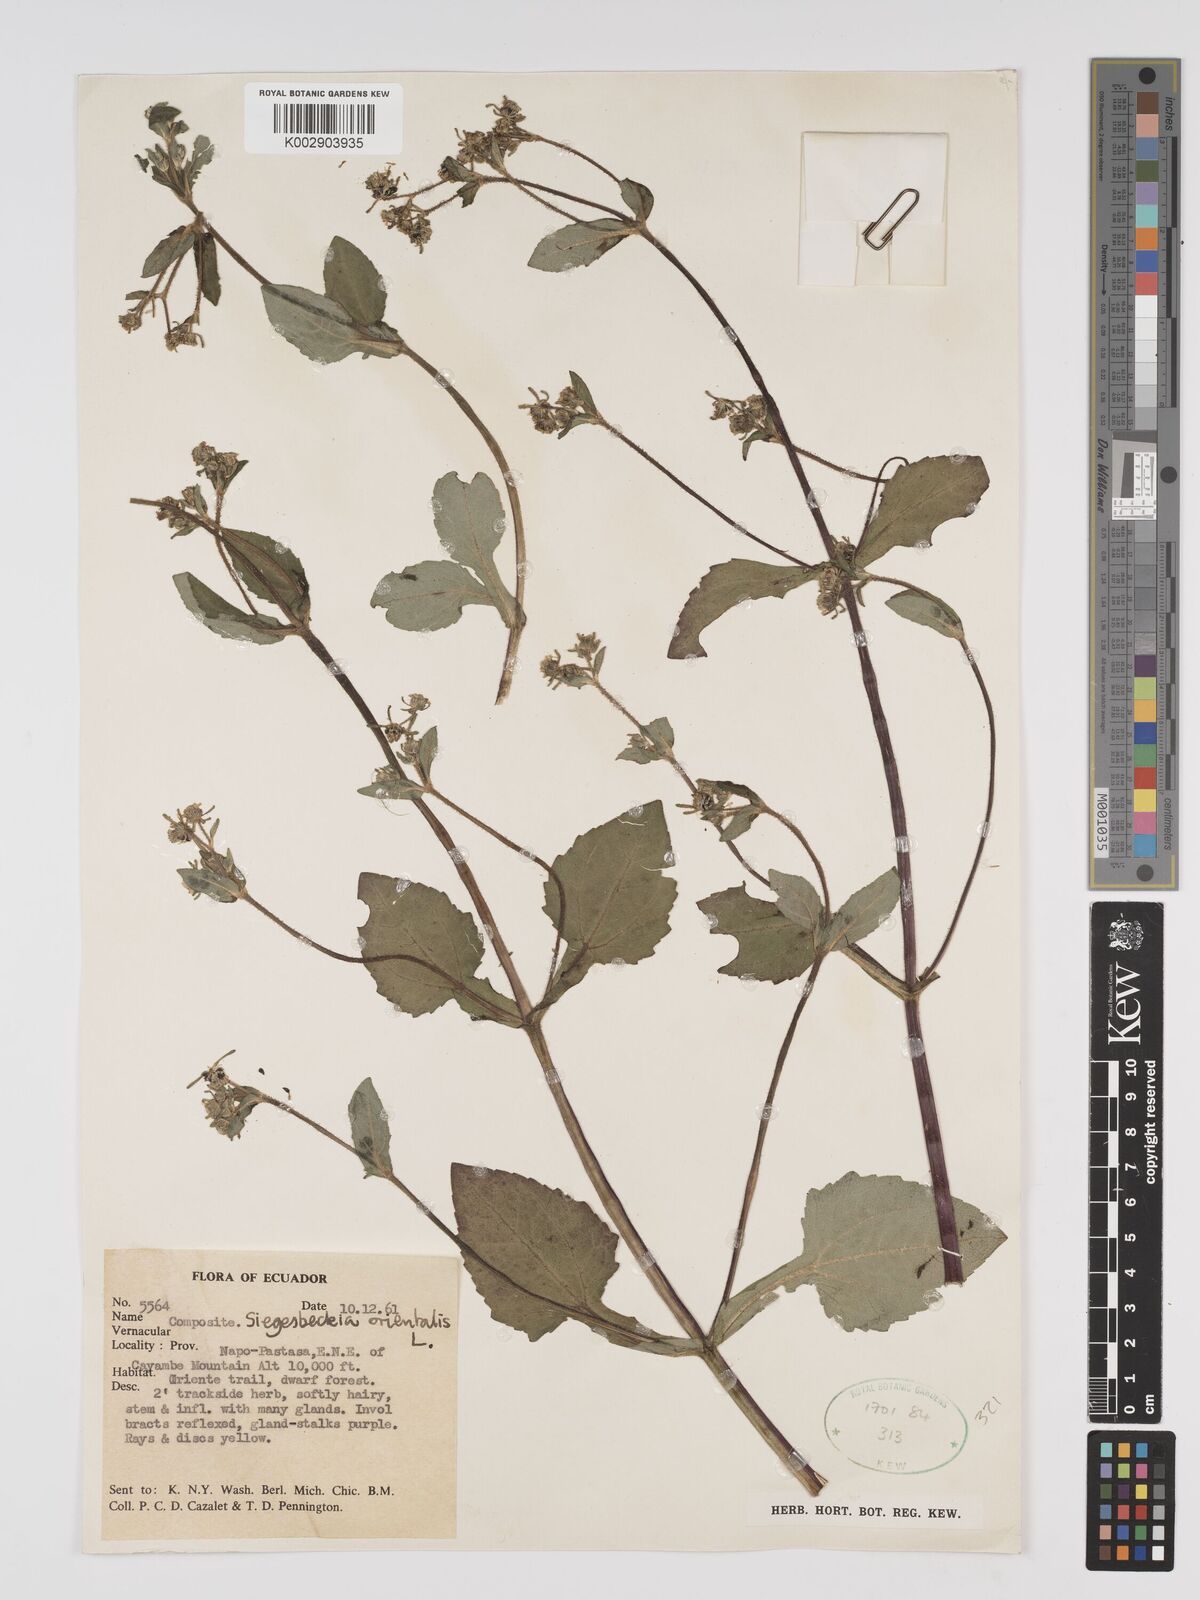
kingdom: Plantae
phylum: Tracheophyta
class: Magnoliopsida
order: Asterales
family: Asteraceae
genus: Sigesbeckia
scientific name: Sigesbeckia orientalis
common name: Eastern st paul's-wort
